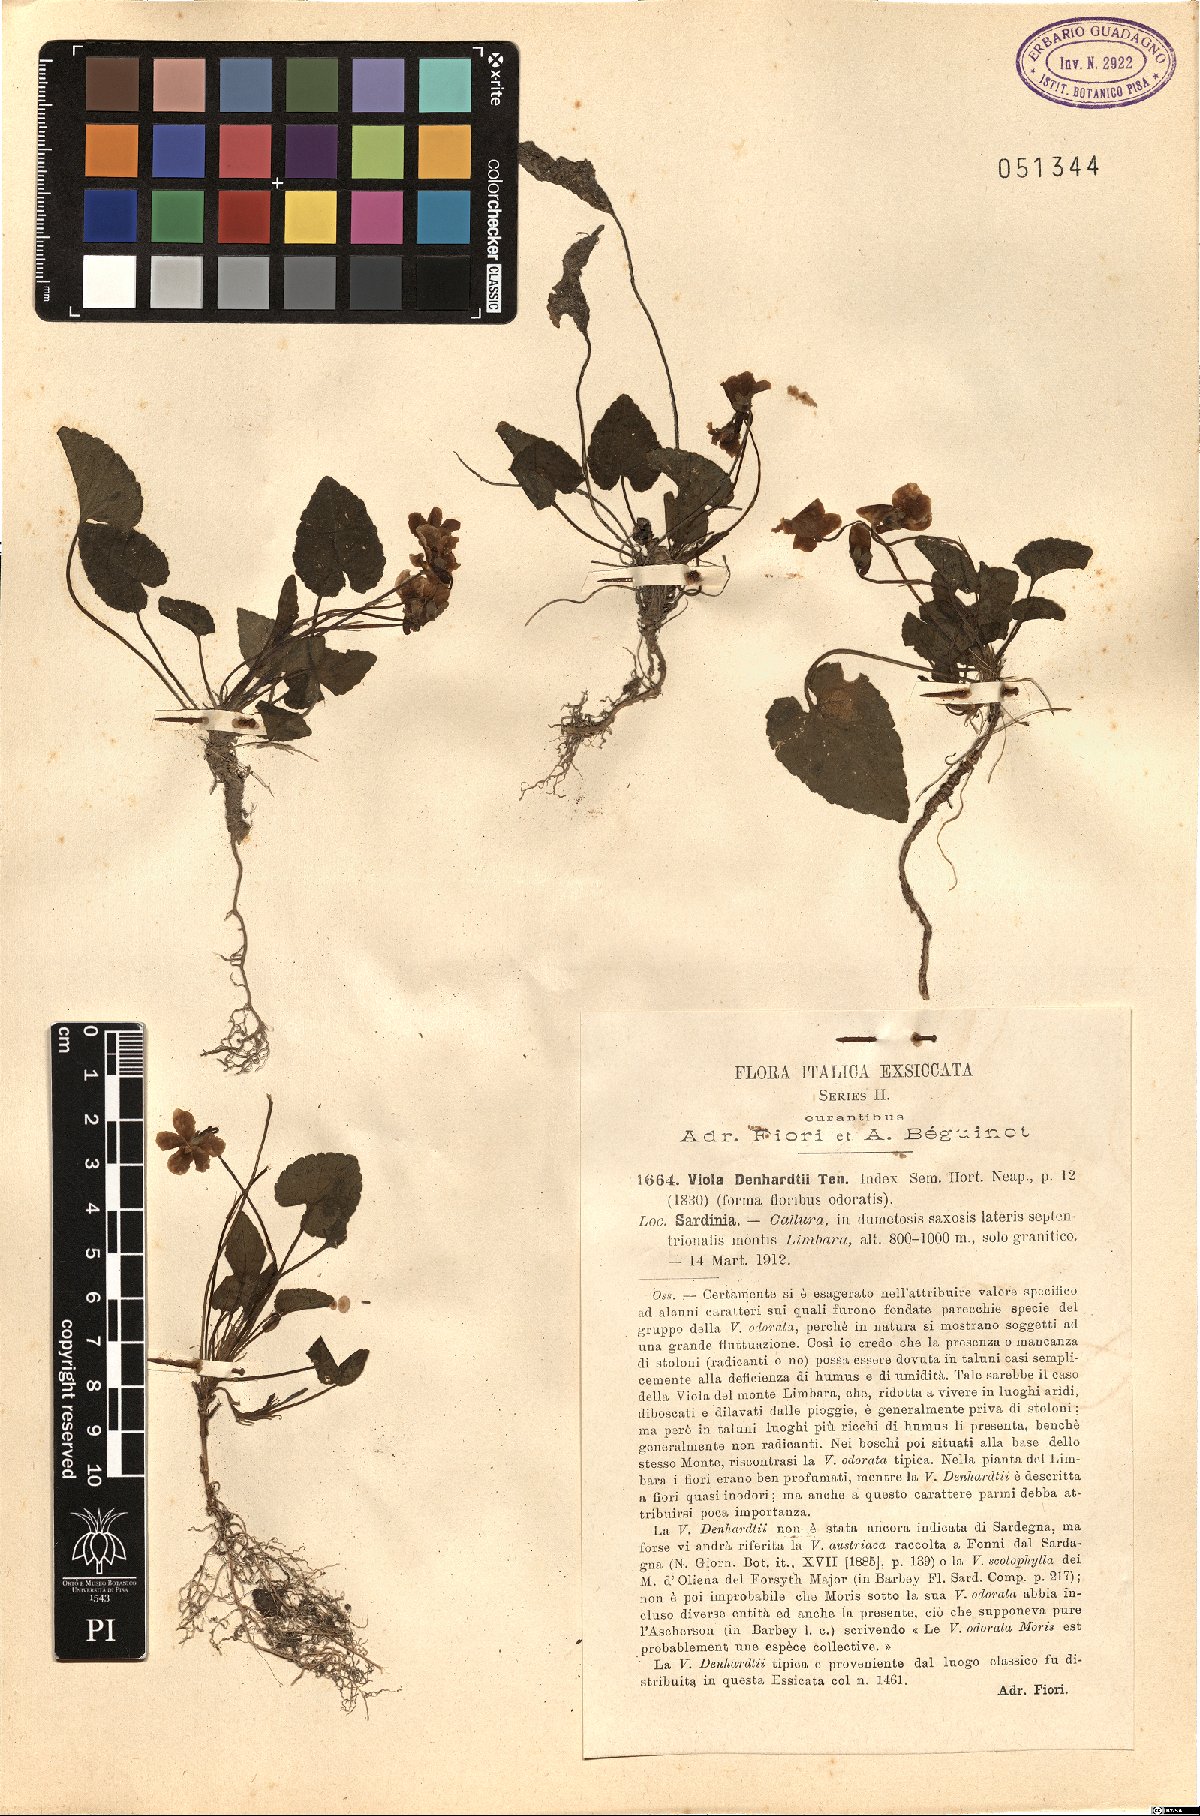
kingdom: Plantae
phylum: Tracheophyta
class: Magnoliopsida
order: Malpighiales
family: Violaceae
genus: Viola
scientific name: Viola alba
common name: White violet
